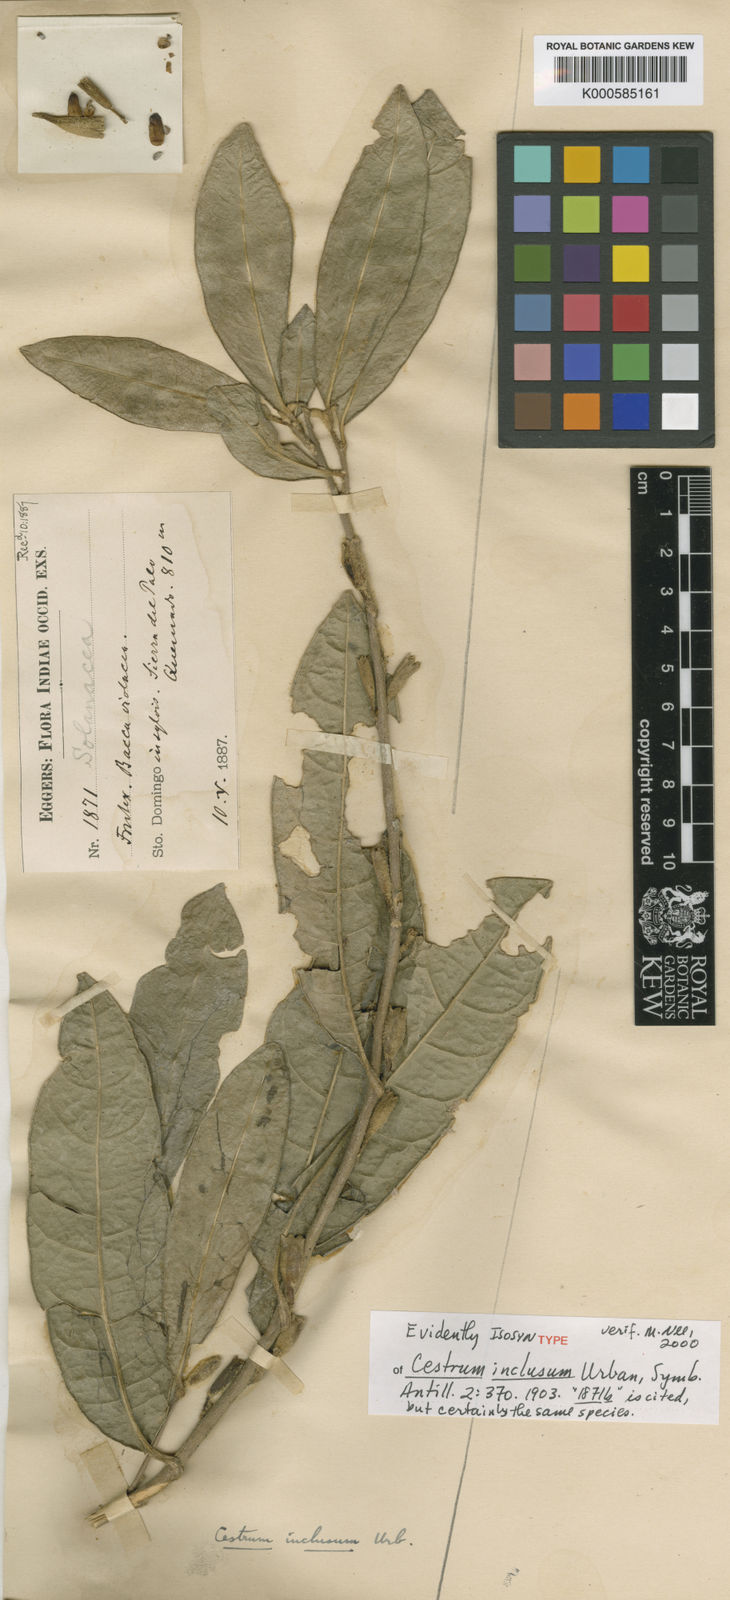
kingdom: Plantae
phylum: Tracheophyta
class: Magnoliopsida
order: Solanales
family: Solanaceae
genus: Cestrum
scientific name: Cestrum inclusum
